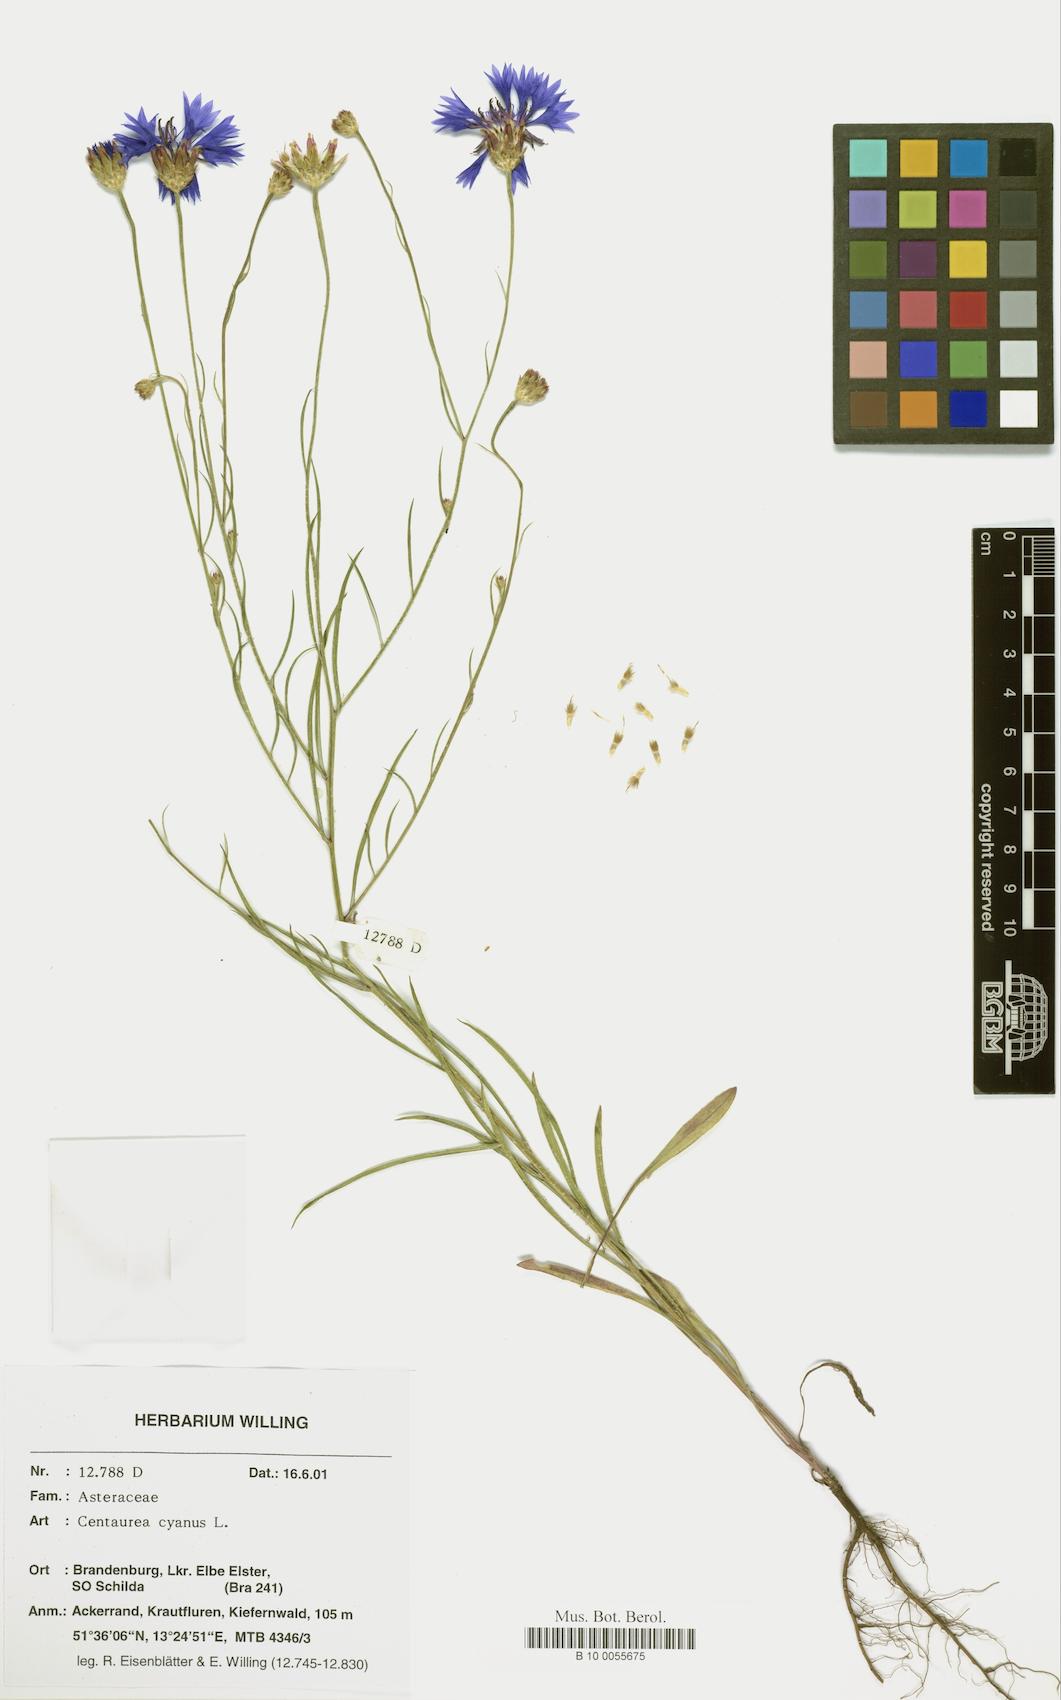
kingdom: Plantae
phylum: Tracheophyta
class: Magnoliopsida
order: Asterales
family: Asteraceae
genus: Centaurea
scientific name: Centaurea cyanus
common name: Cornflower
